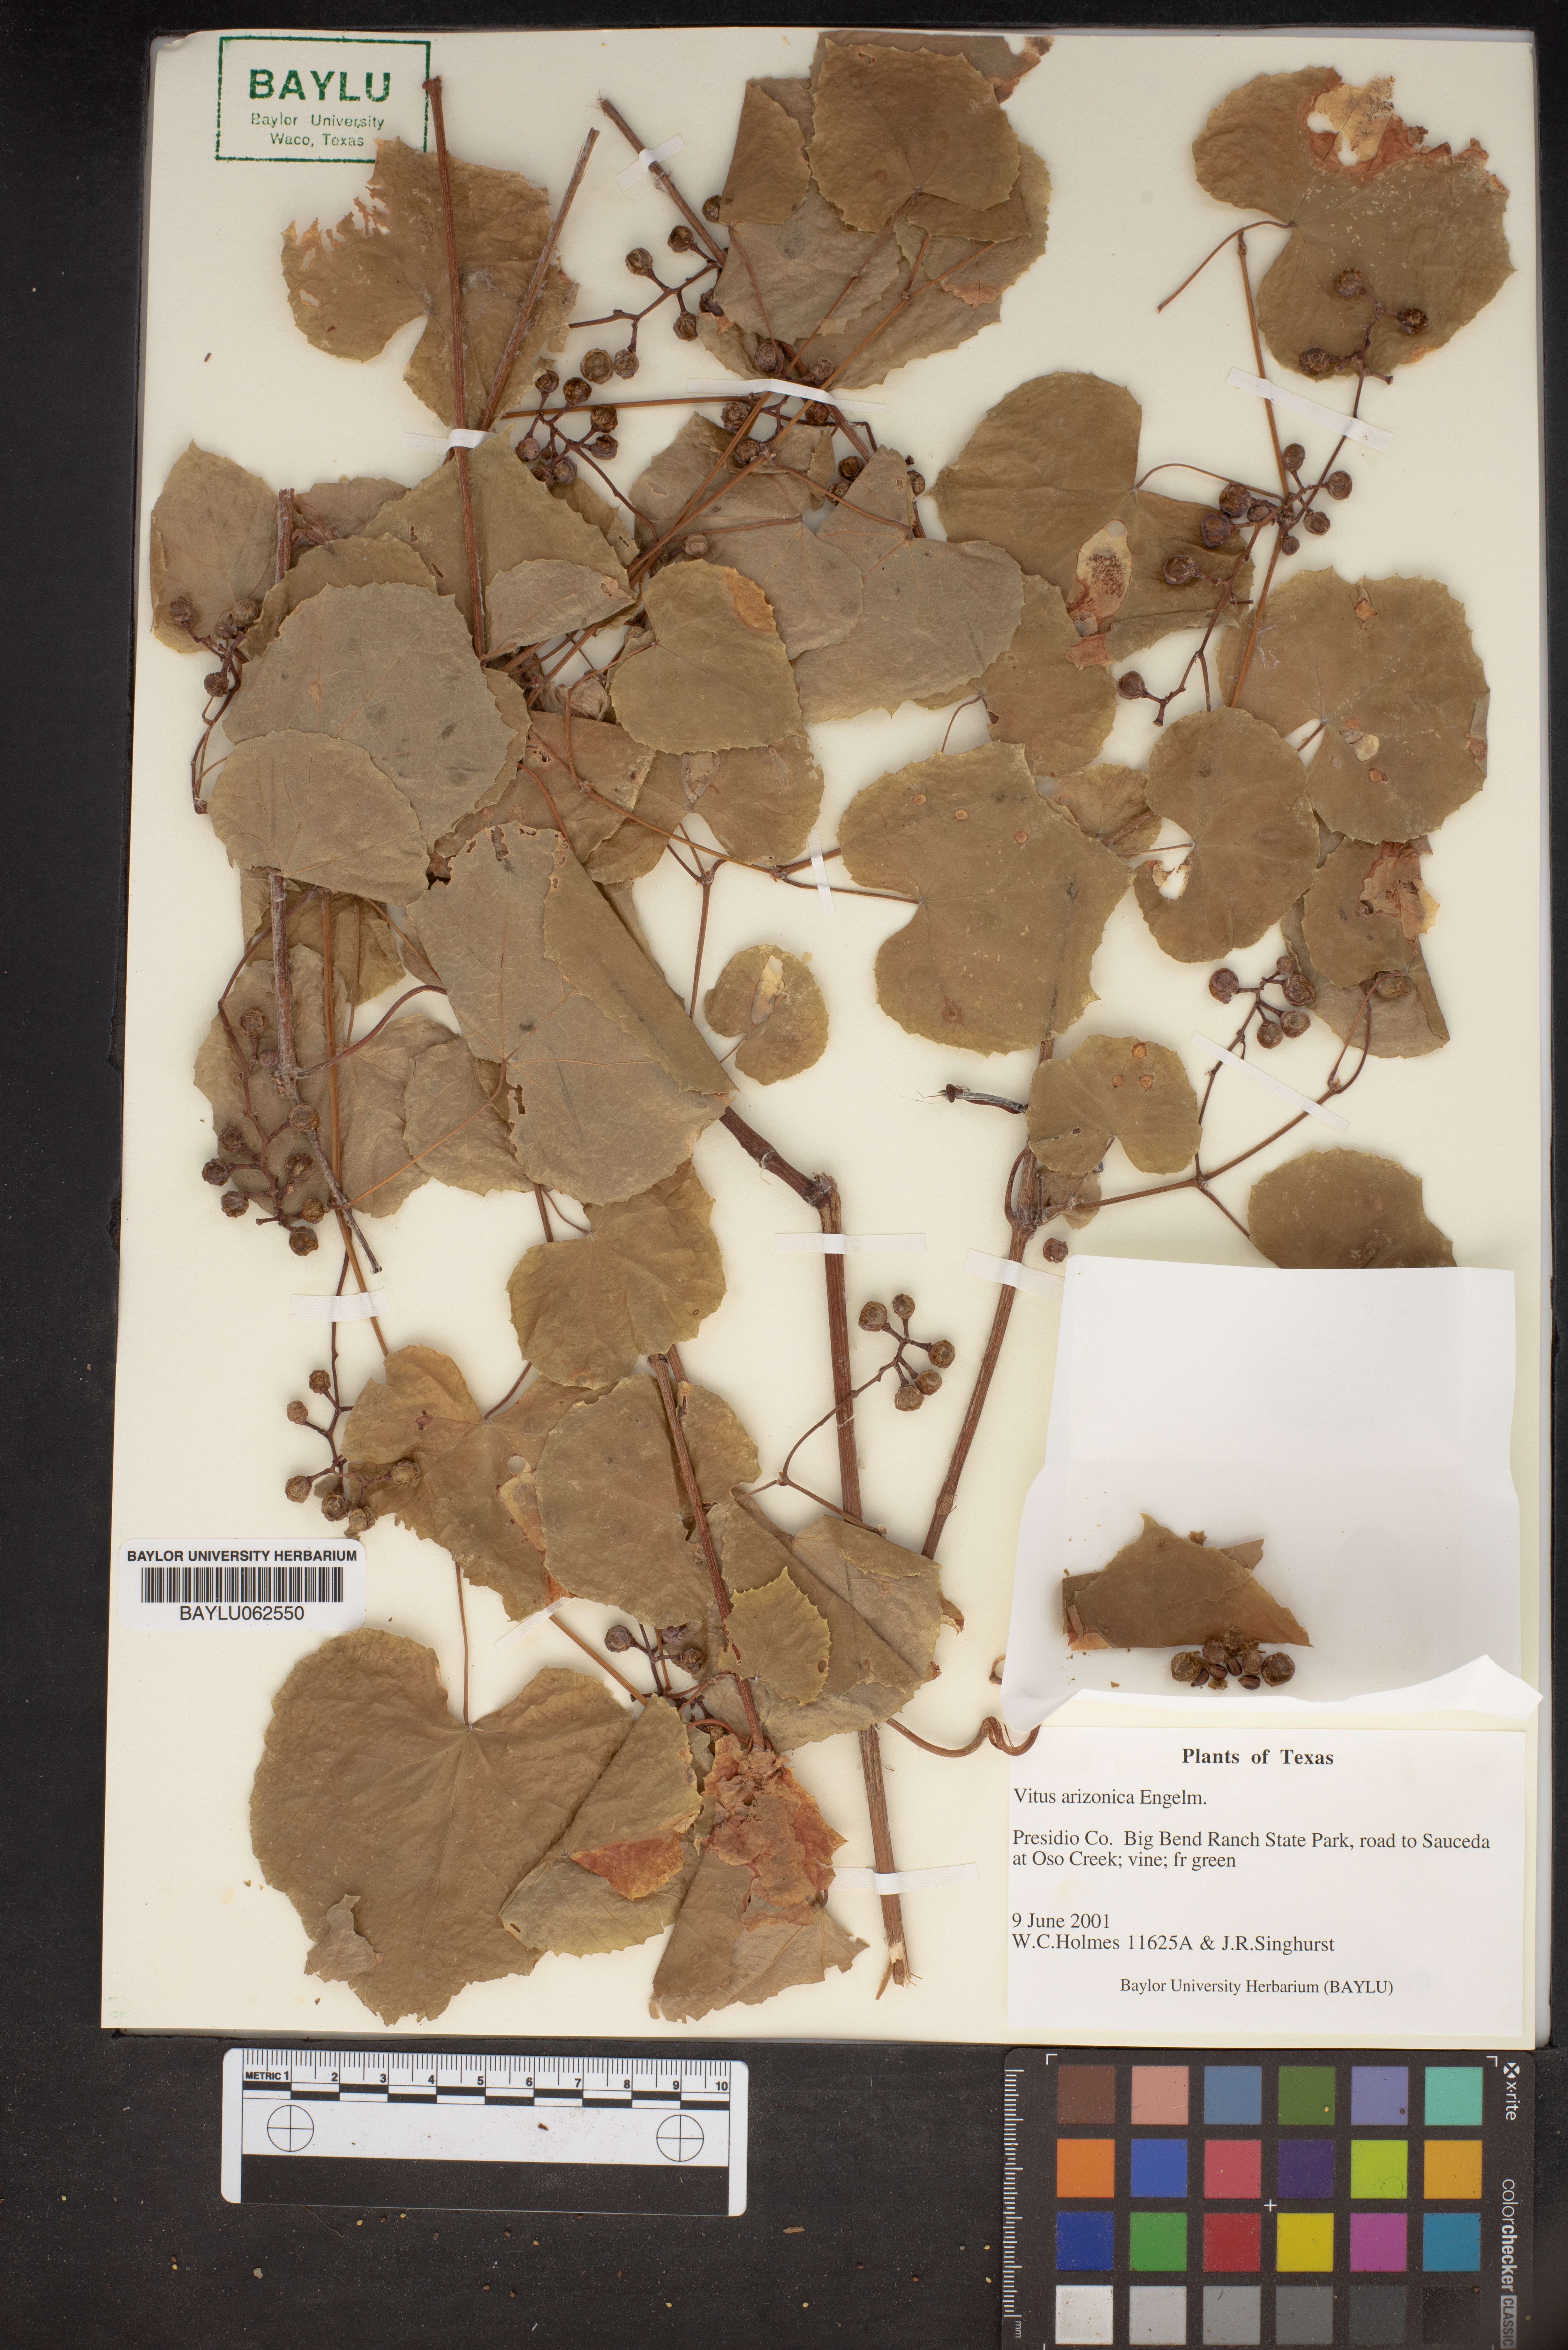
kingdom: Plantae
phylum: Tracheophyta
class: Magnoliopsida
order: Vitales
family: Vitaceae
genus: Vitis
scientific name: Vitis arizonica
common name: Canyon grape
